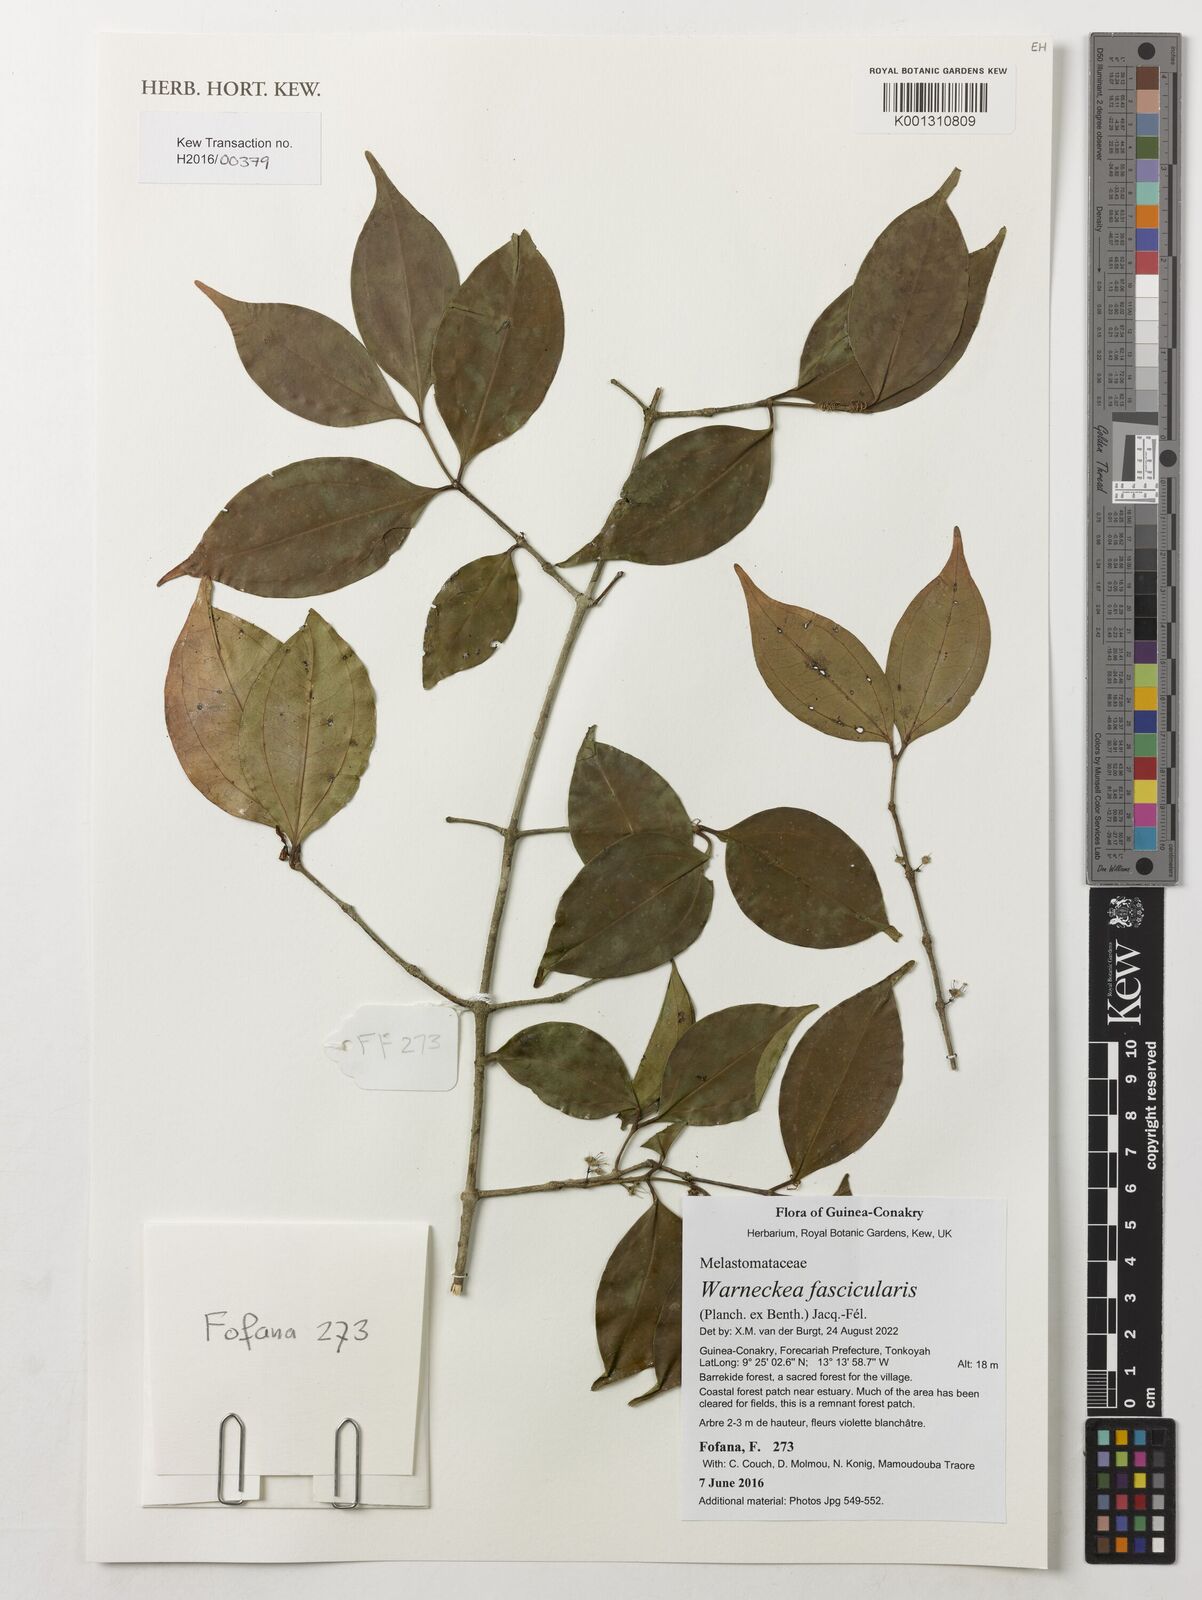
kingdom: Plantae
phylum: Tracheophyta
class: Magnoliopsida
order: Myrtales
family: Melastomataceae
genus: Warneckea
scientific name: Warneckea fascicularis
